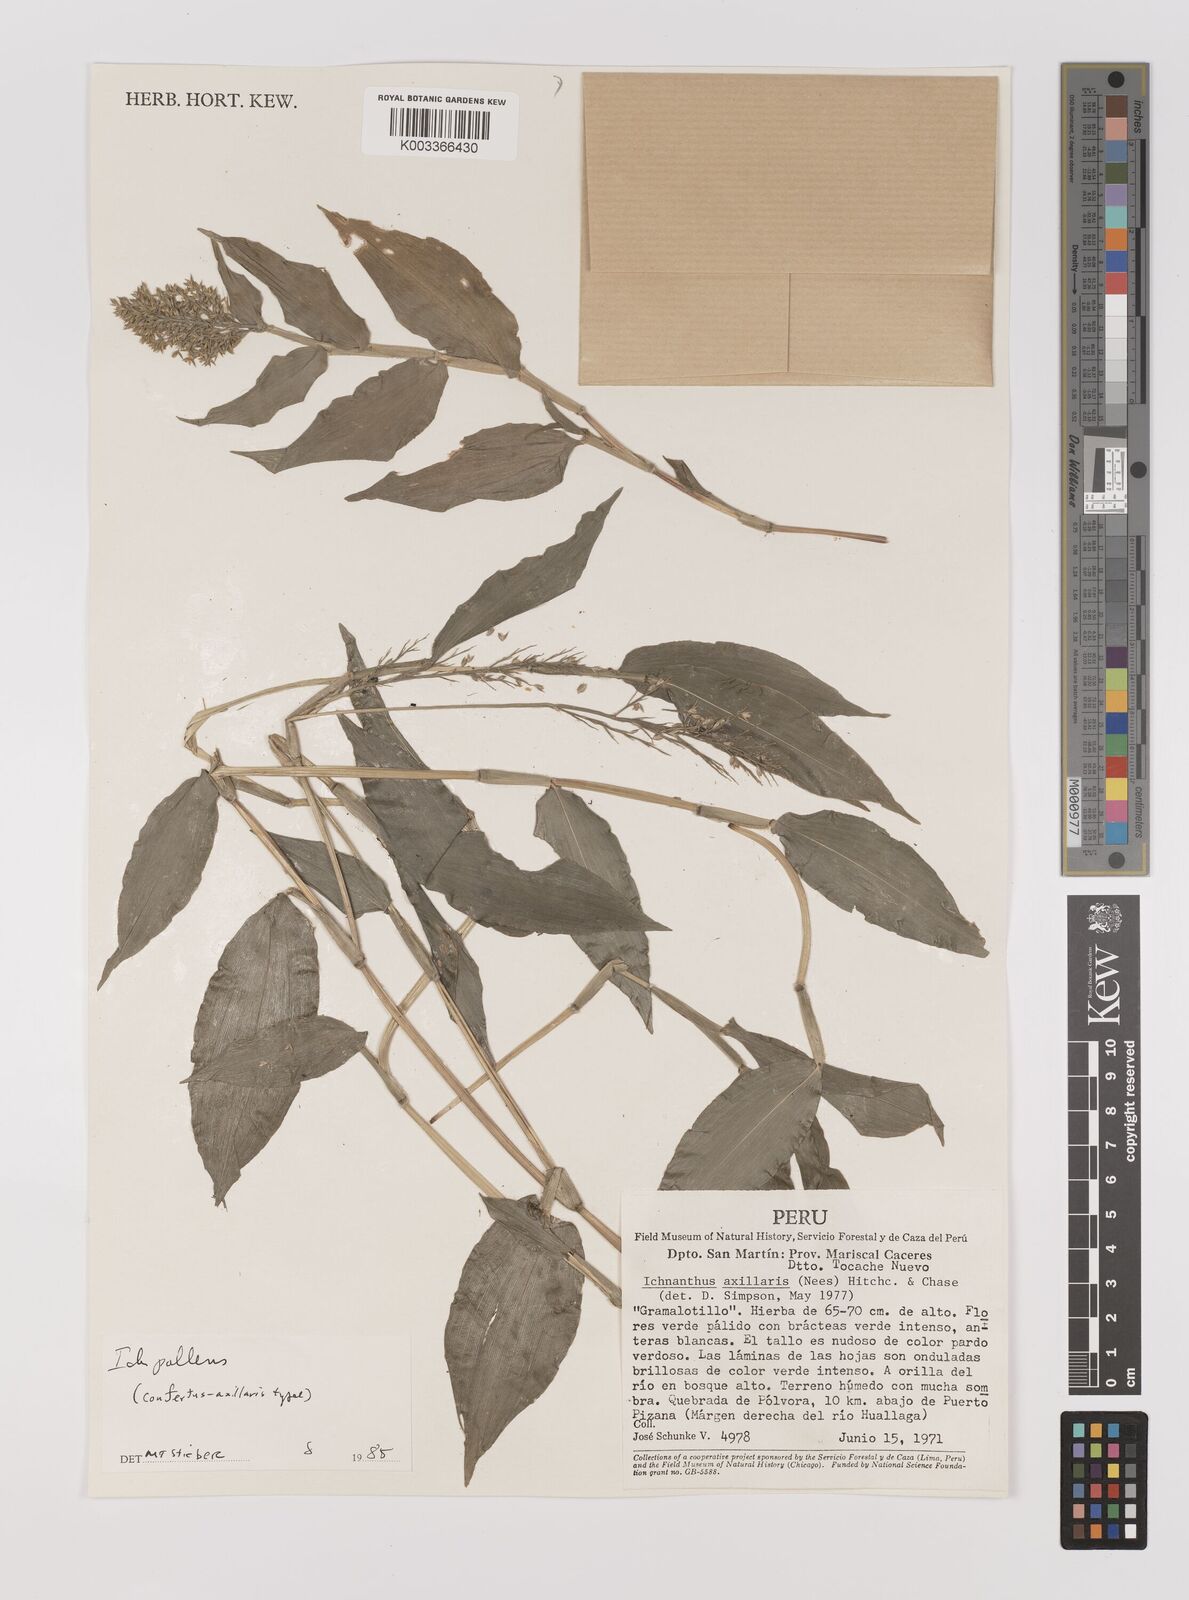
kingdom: Plantae
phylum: Tracheophyta
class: Liliopsida
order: Poales
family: Poaceae
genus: Ichnanthus
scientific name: Ichnanthus pallens
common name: Water grass
